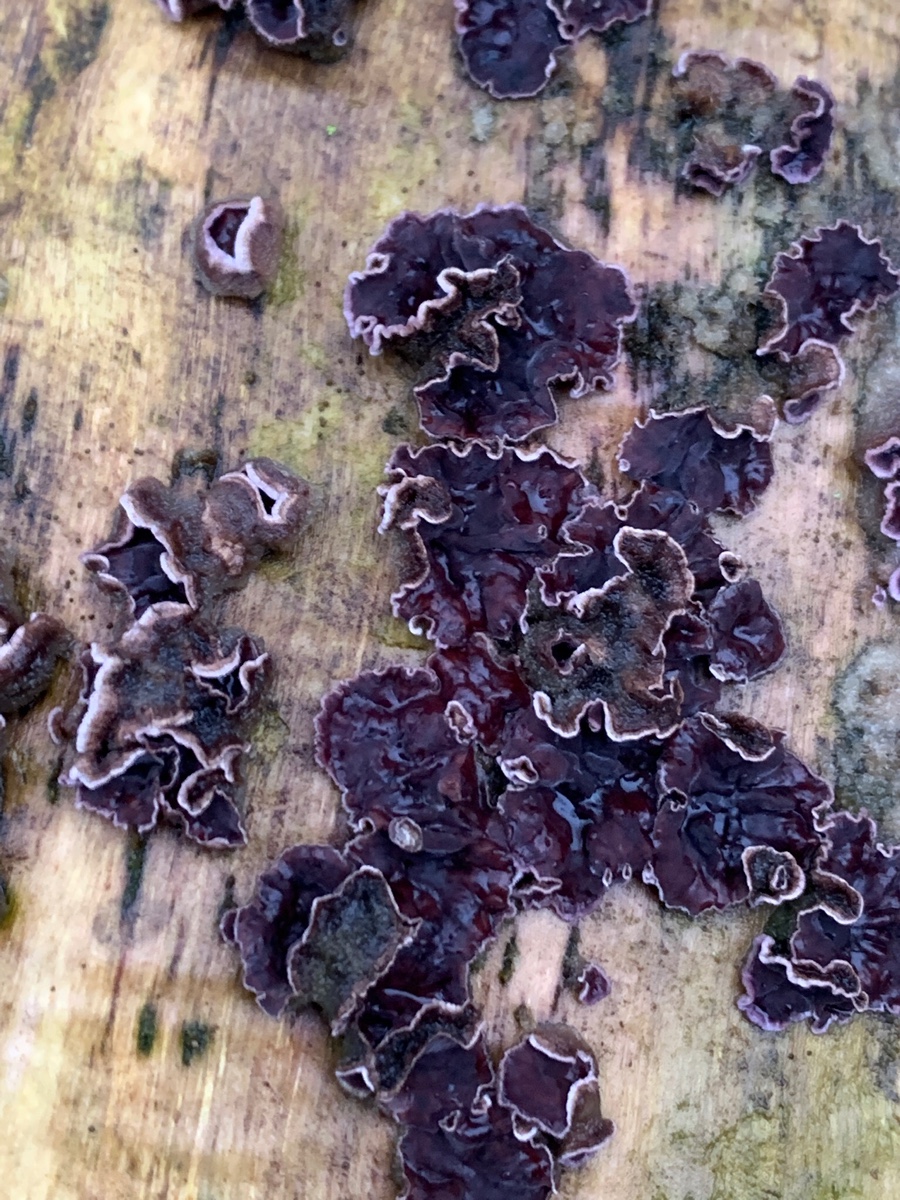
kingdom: Fungi
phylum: Basidiomycota
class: Agaricomycetes
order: Agaricales
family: Cyphellaceae
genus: Chondrostereum
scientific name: Chondrostereum purpureum
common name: purpurlædersvamp
